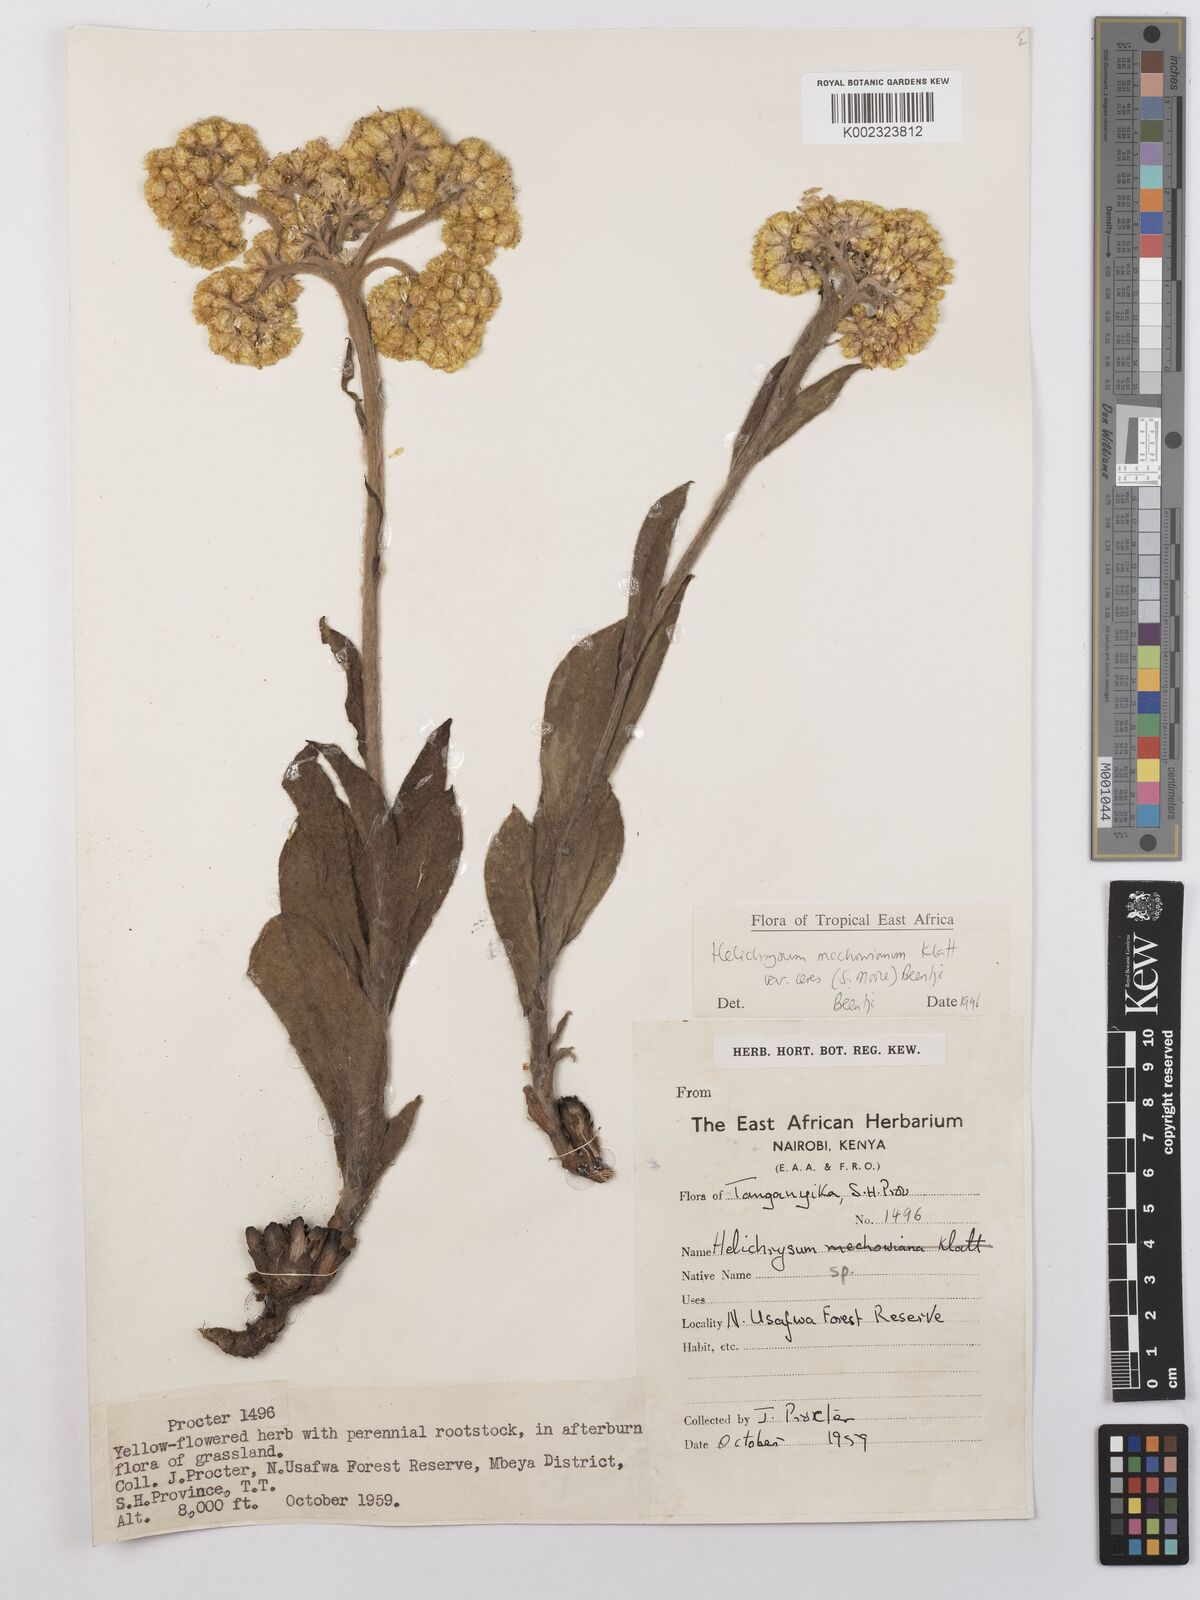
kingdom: Plantae
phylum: Tracheophyta
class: Magnoliopsida
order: Asterales
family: Asteraceae
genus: Helichrysum
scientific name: Helichrysum mechowianum
